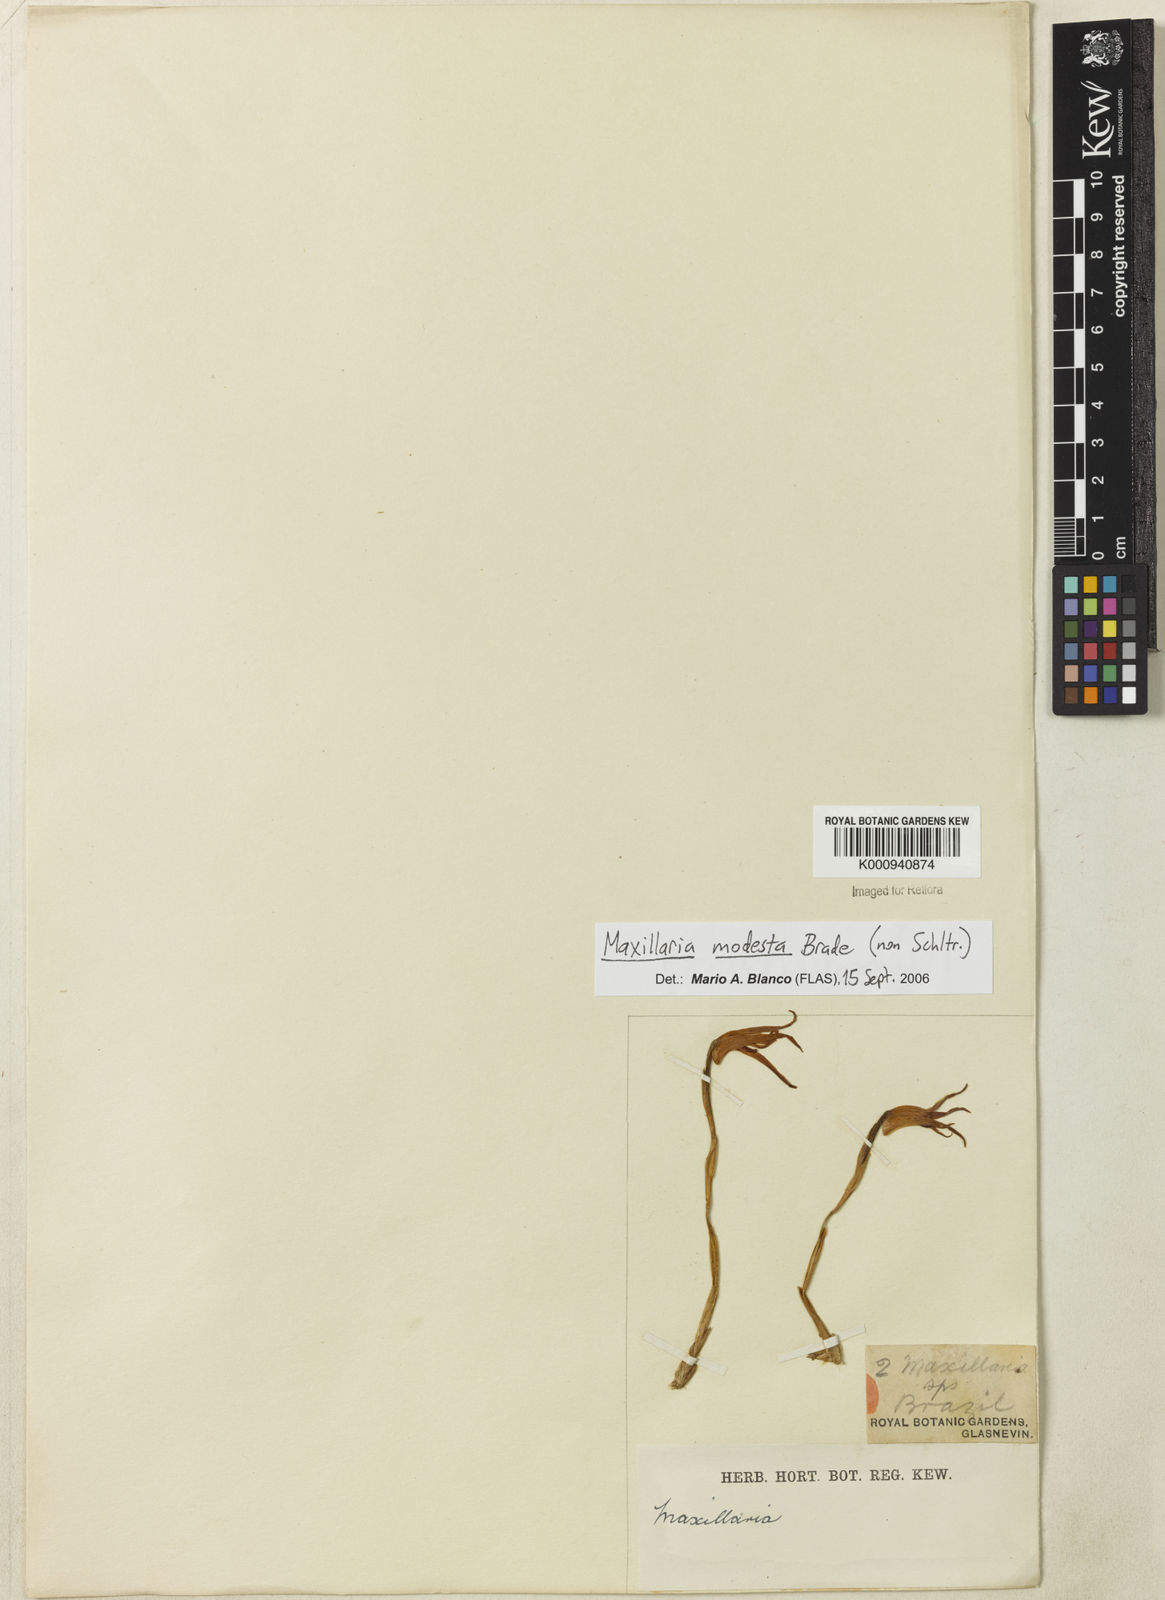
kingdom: Plantae
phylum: Tracheophyta
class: Liliopsida
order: Asparagales
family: Orchidaceae
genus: Maxillaria
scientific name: Maxillaria
